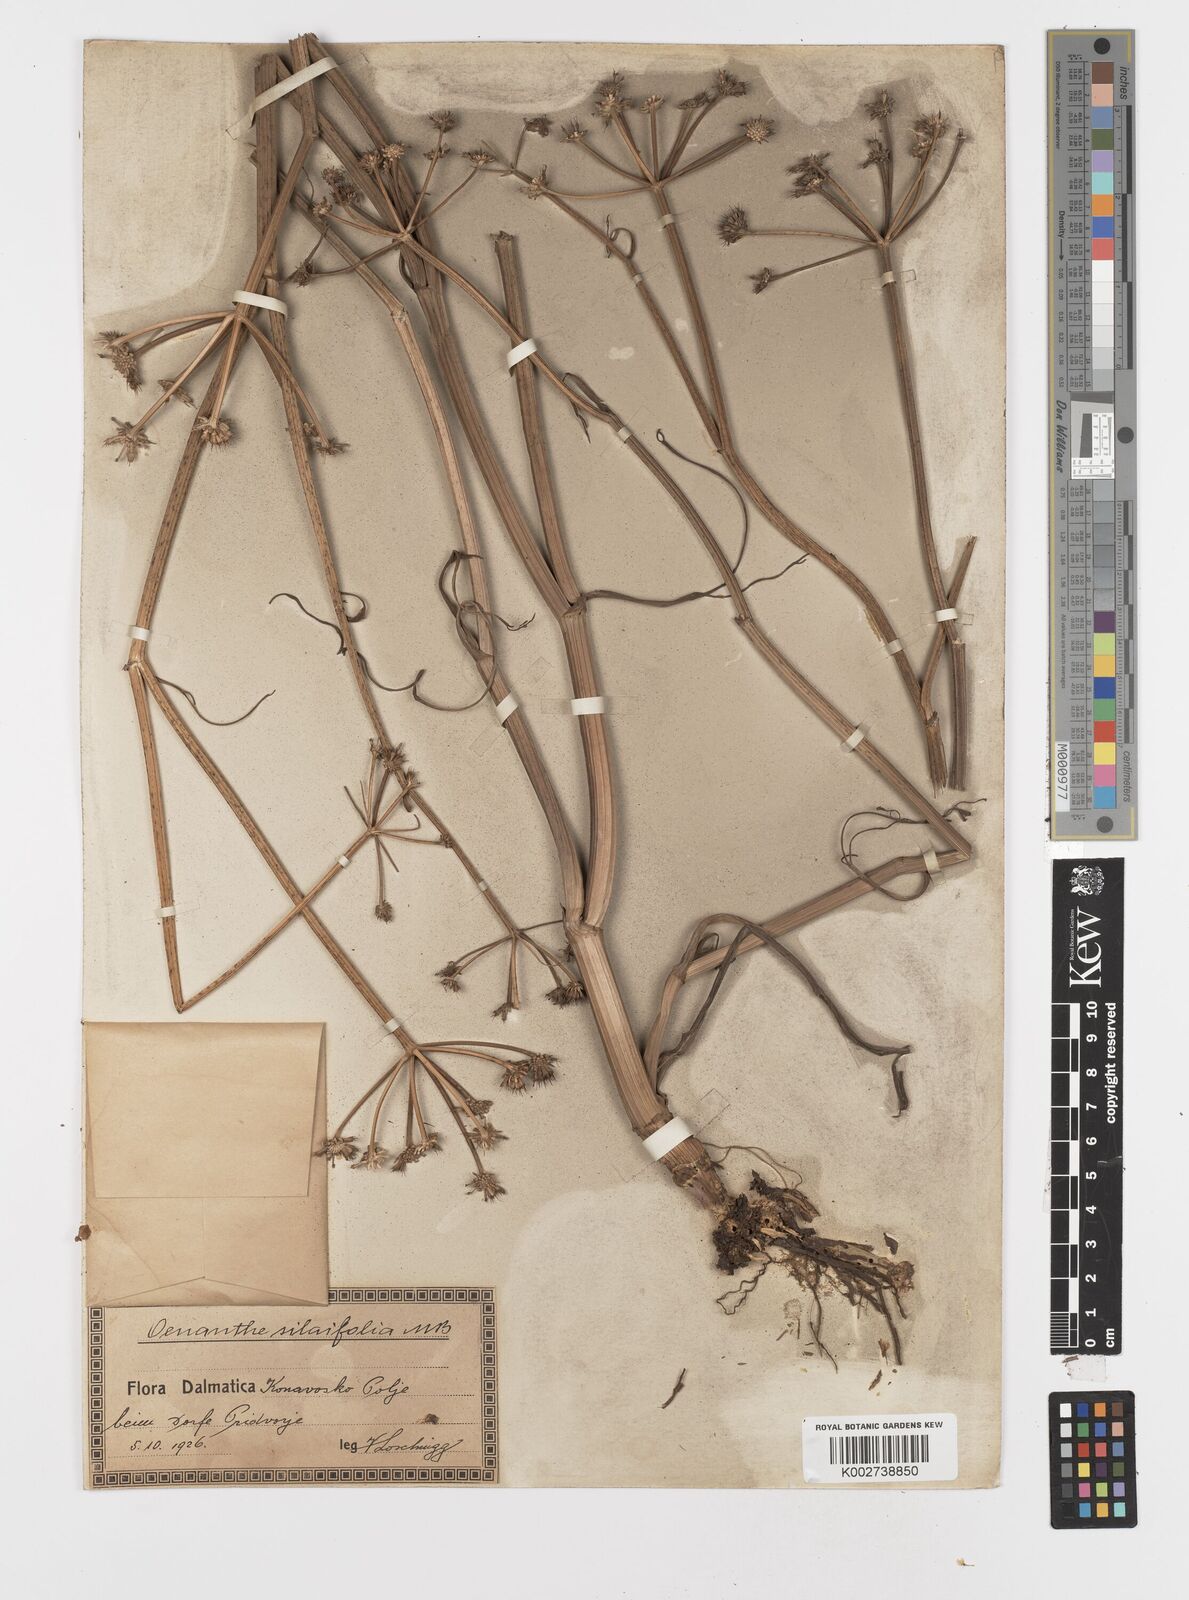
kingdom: Plantae
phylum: Tracheophyta
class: Magnoliopsida
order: Apiales
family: Apiaceae
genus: Oenanthe
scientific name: Oenanthe silaifolia
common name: Narrow-leaved water-dropwort
